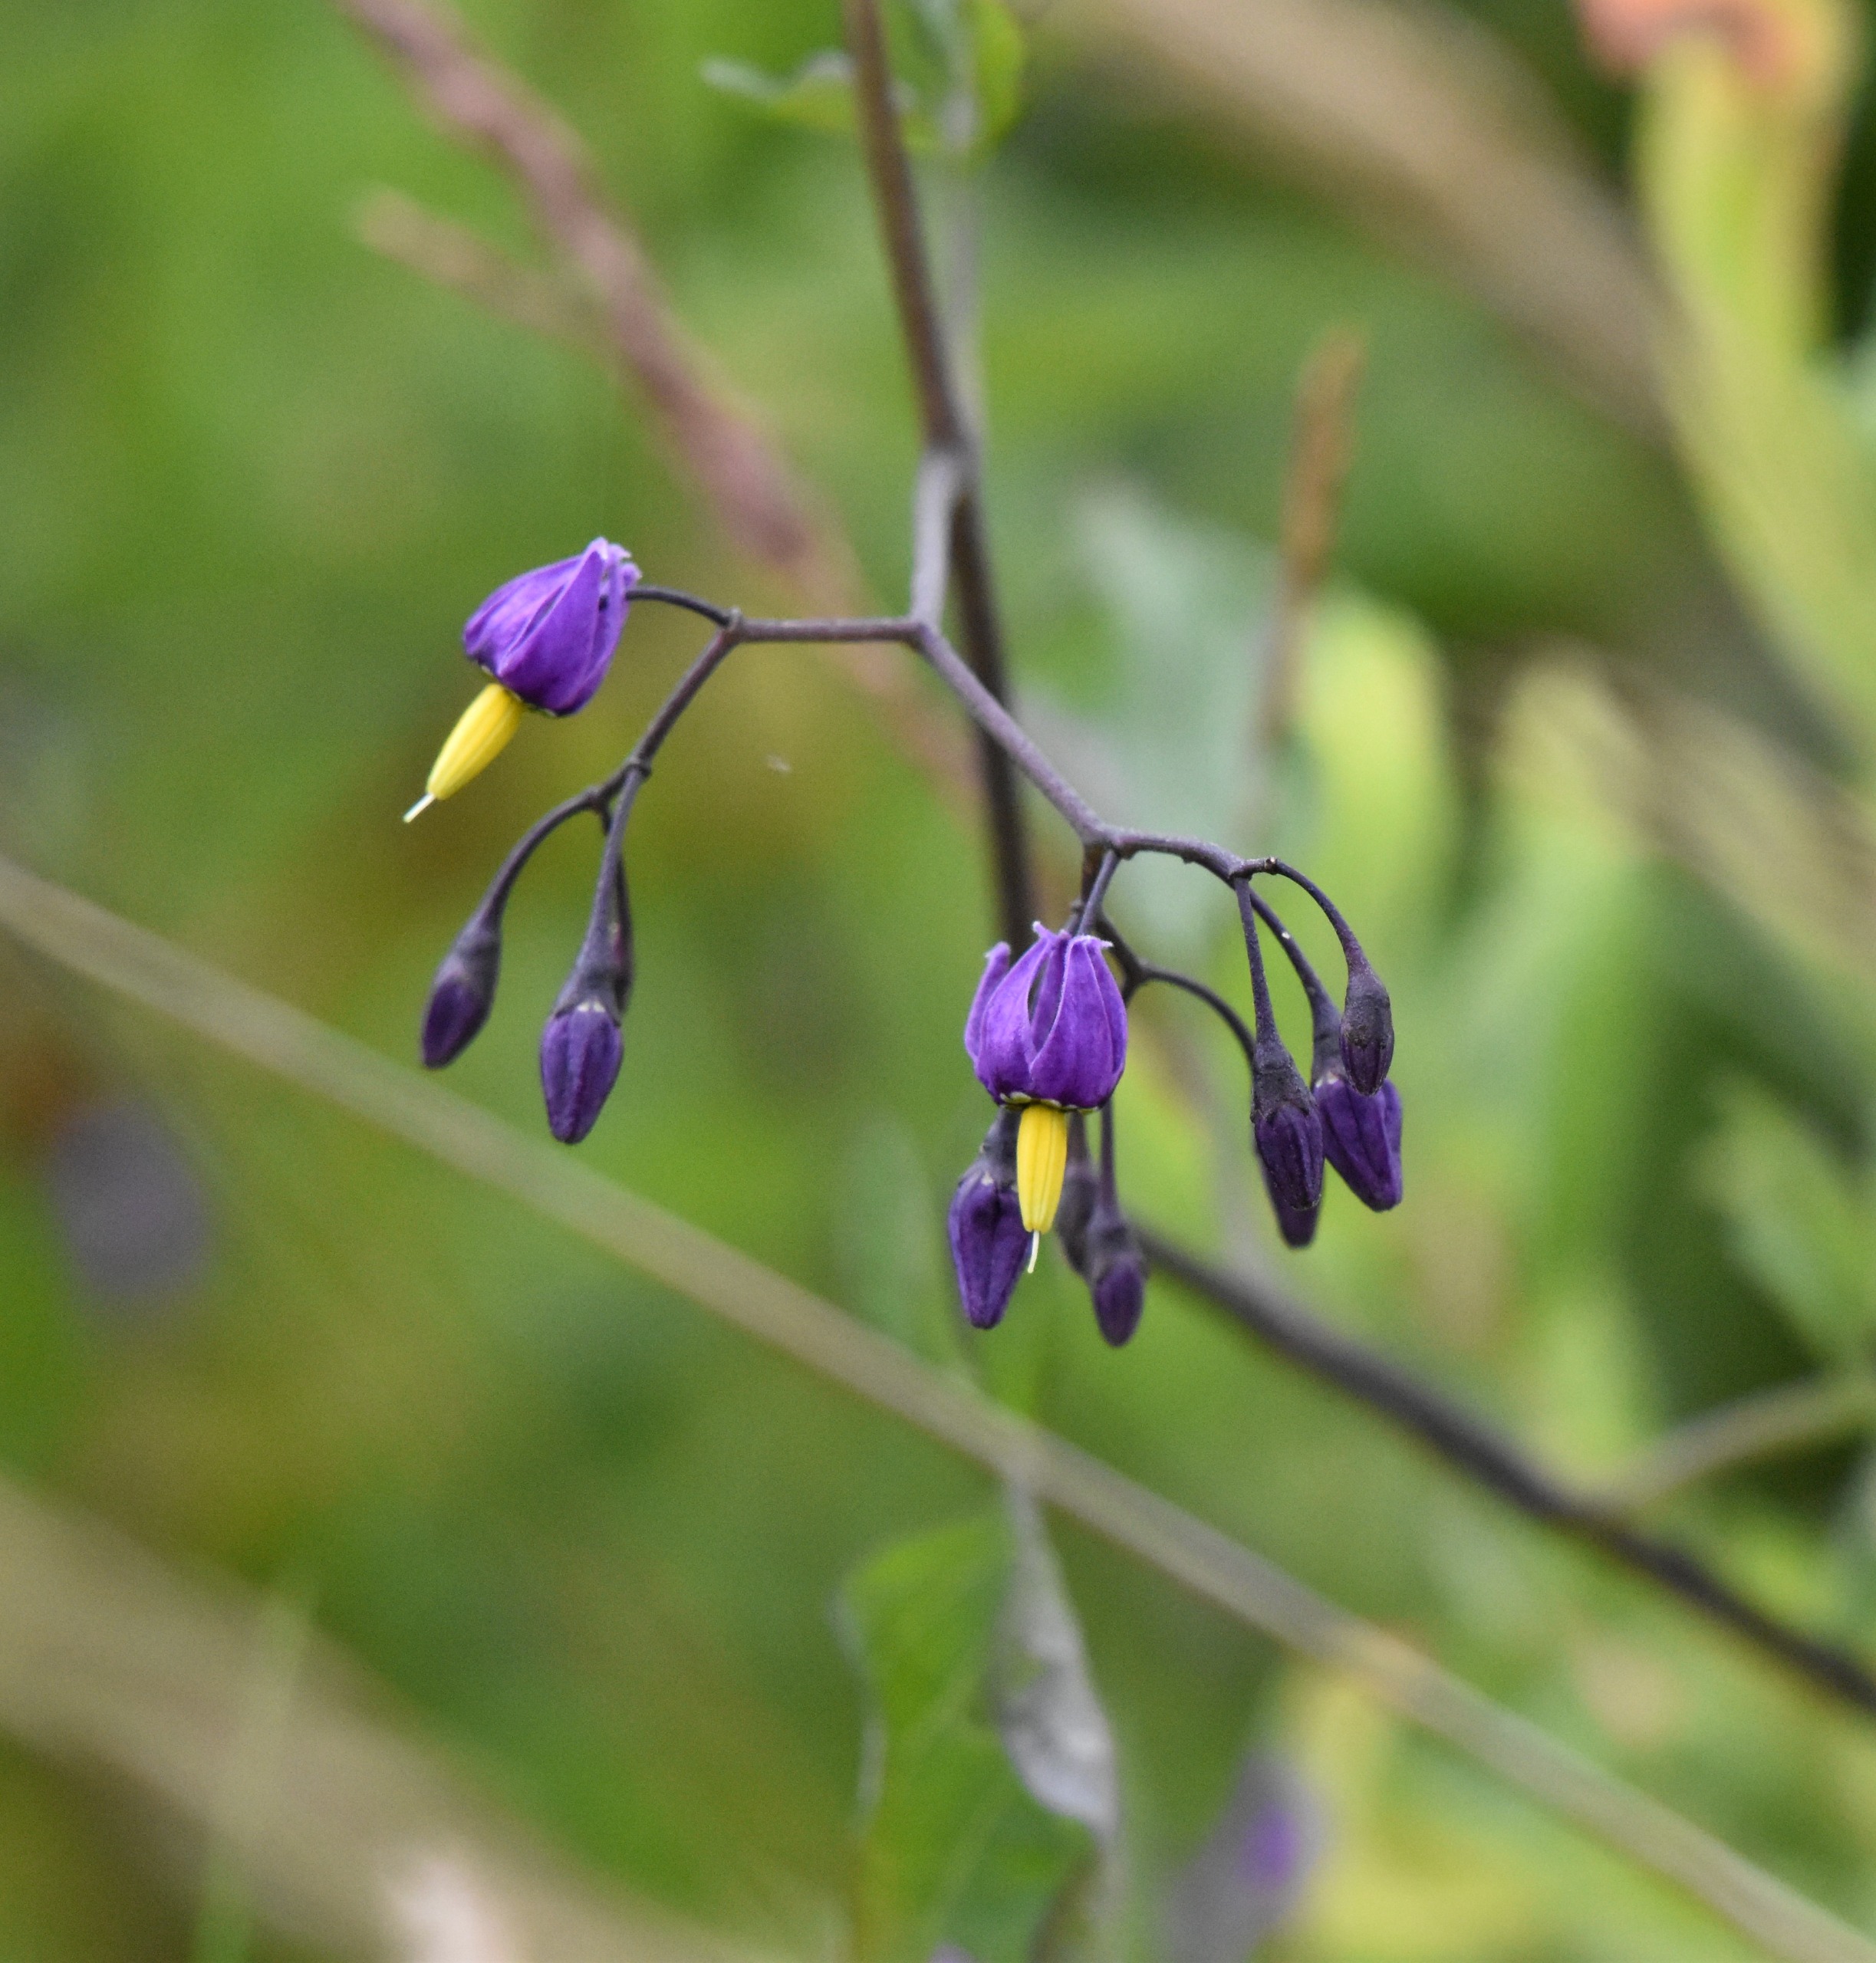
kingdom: Plantae
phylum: Tracheophyta
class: Magnoliopsida
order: Solanales
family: Solanaceae
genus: Solanum
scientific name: Solanum dulcamara
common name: Bittersød natskygge
